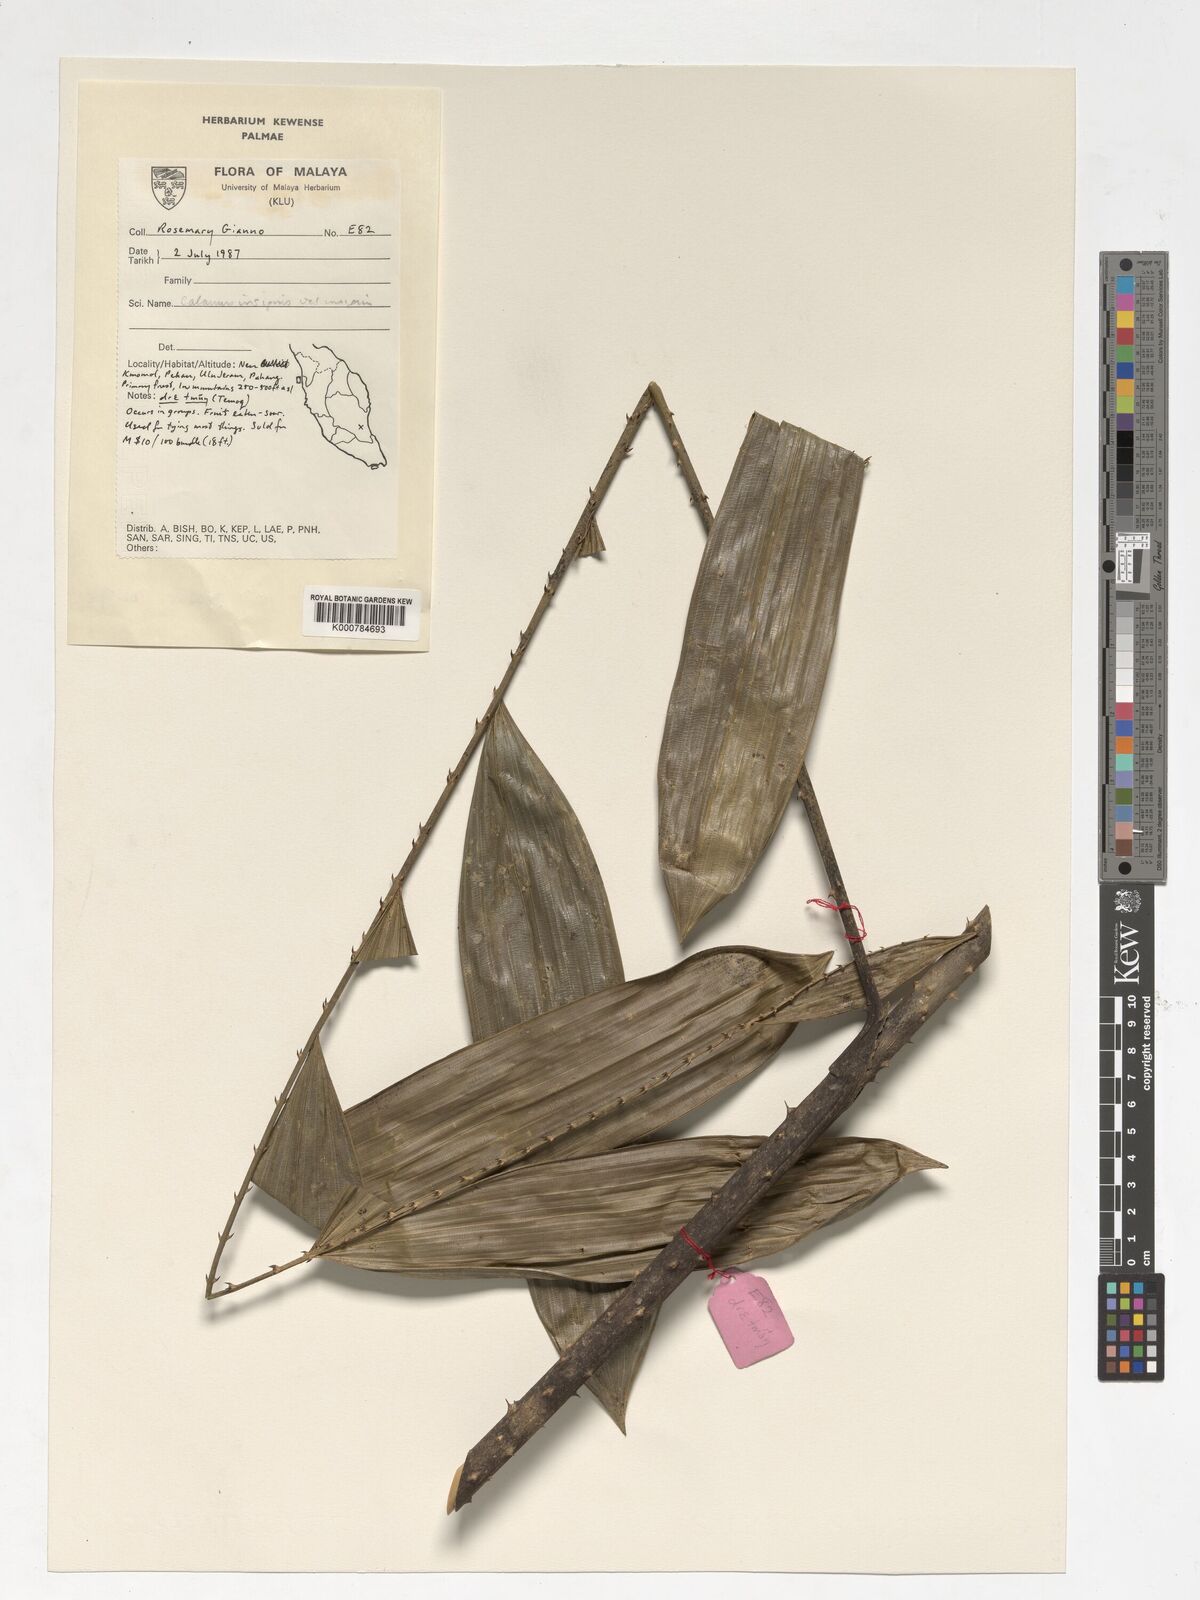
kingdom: Plantae
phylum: Tracheophyta
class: Liliopsida
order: Arecales
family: Arecaceae
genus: Calamus
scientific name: Calamus insignis
